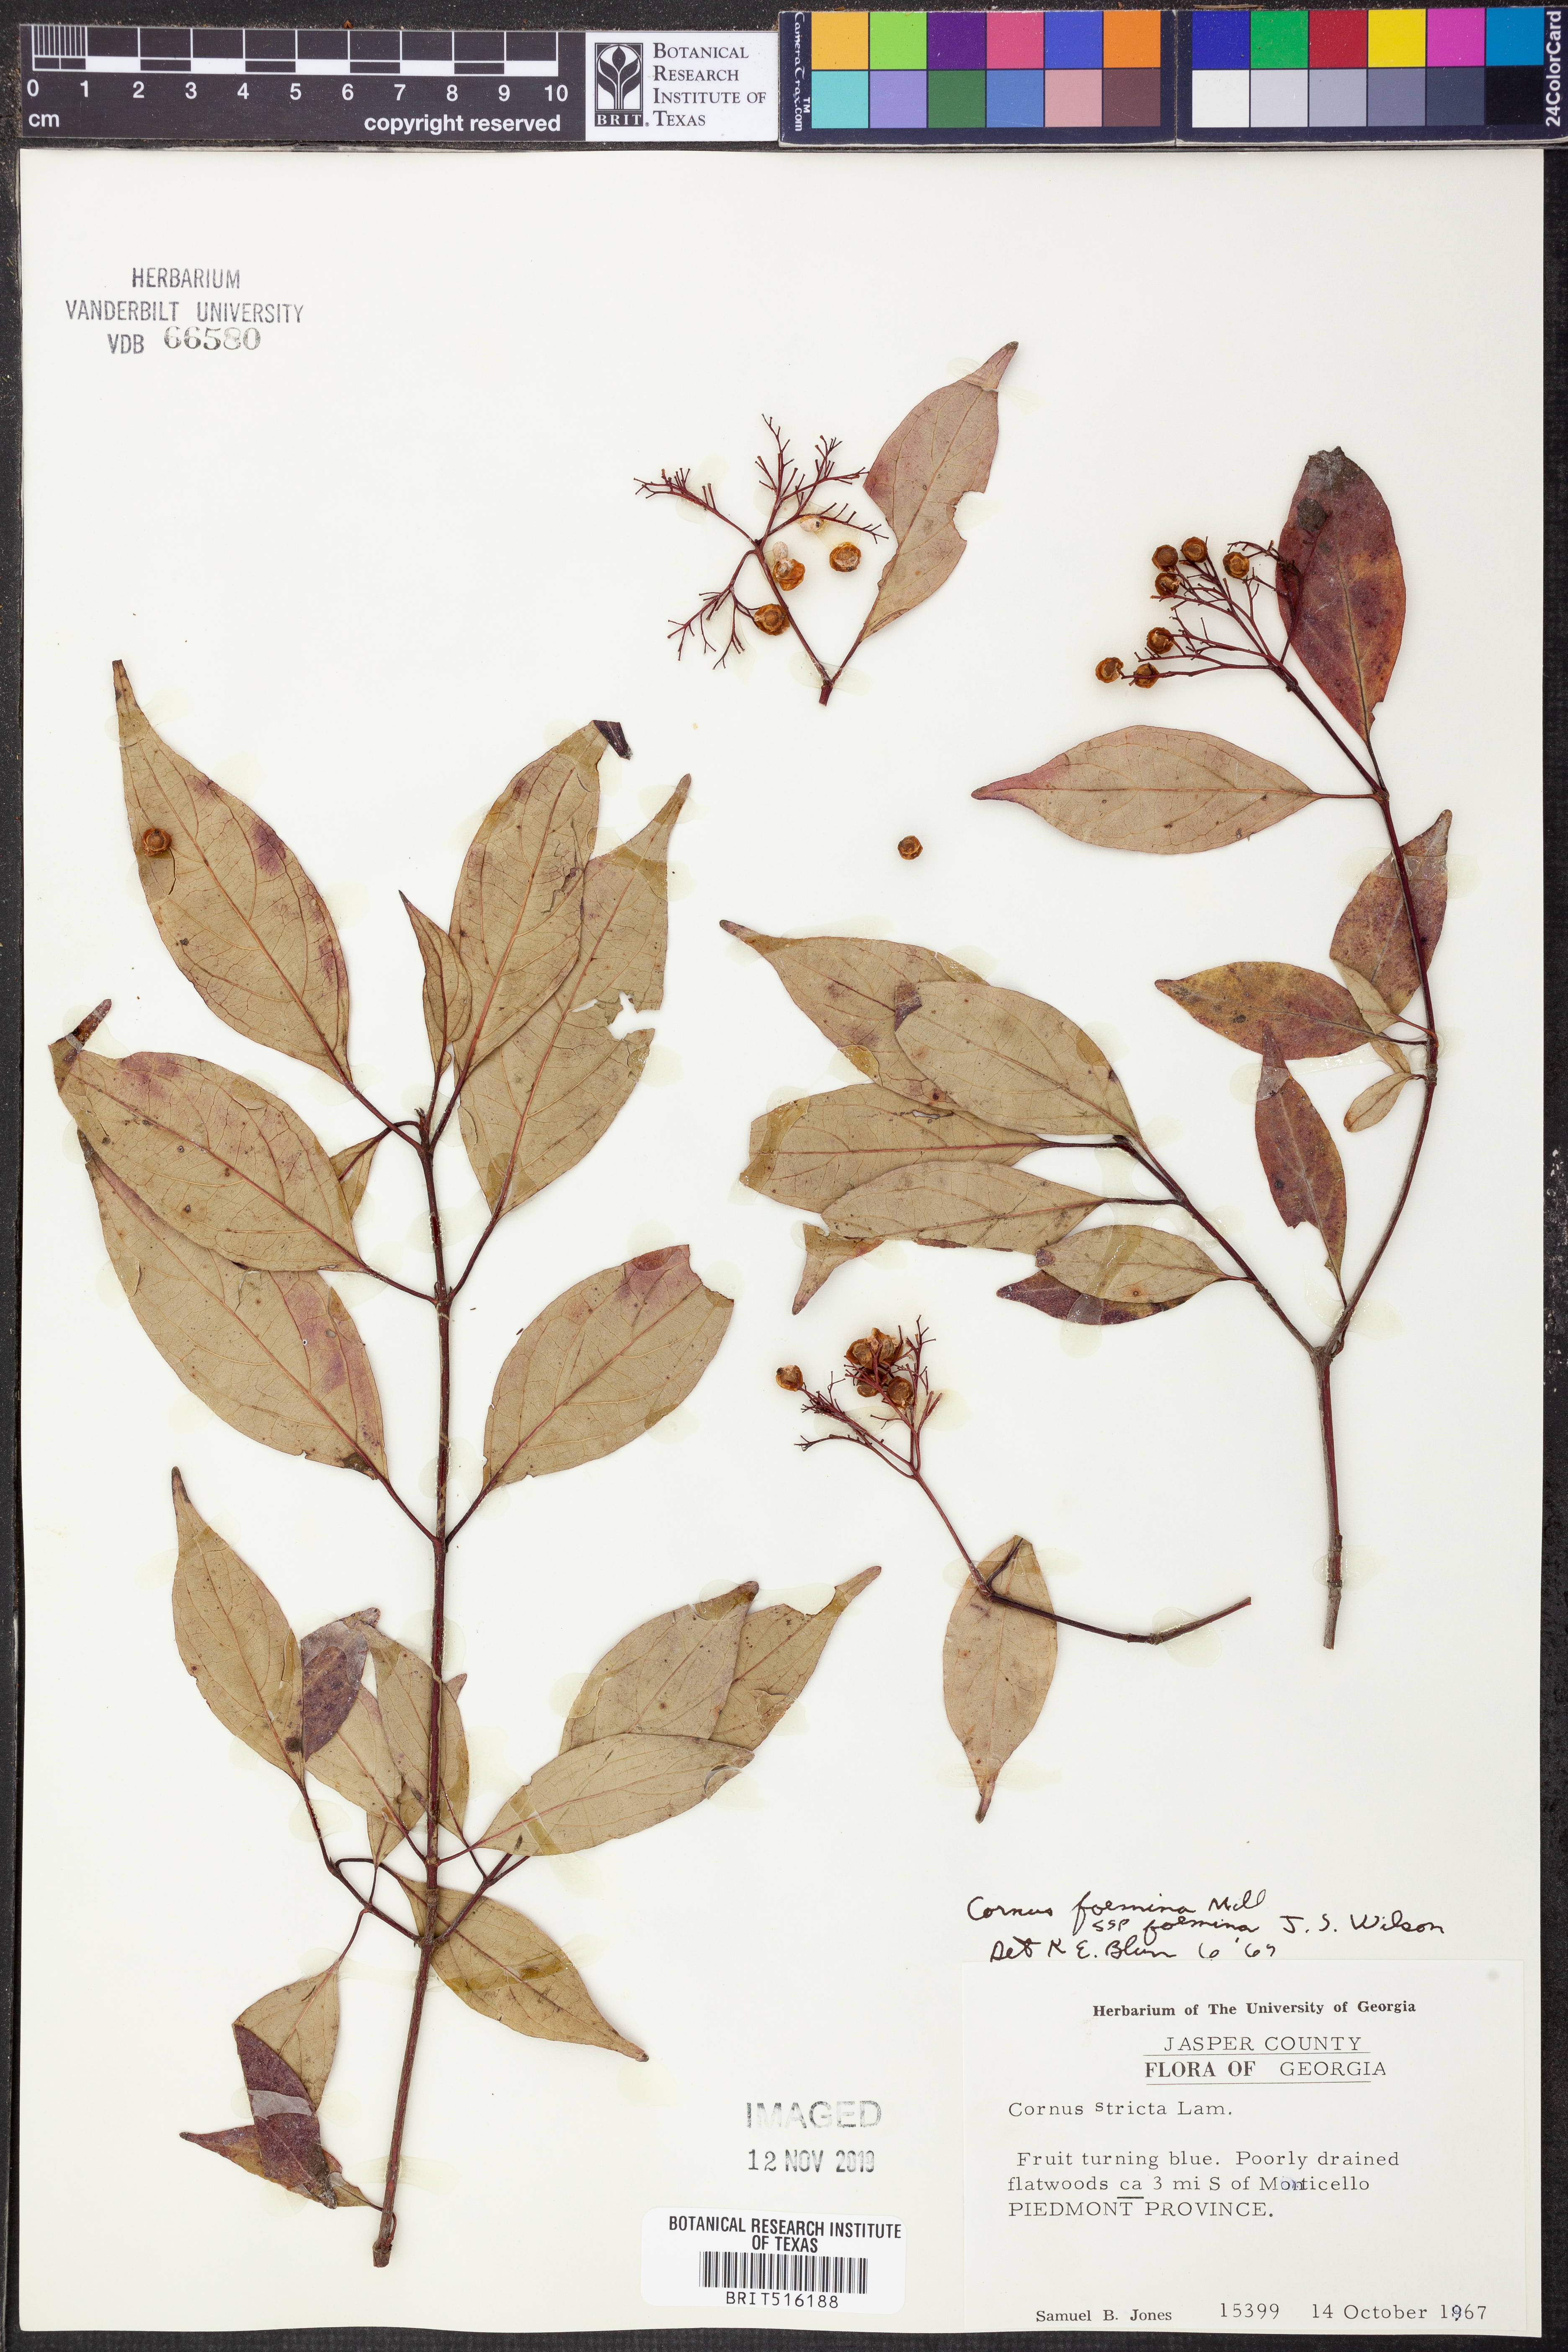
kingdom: Plantae
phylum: Tracheophyta
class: Magnoliopsida
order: Cornales
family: Cornaceae
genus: Cornus
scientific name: Cornus foemina
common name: Swamp dogwood
